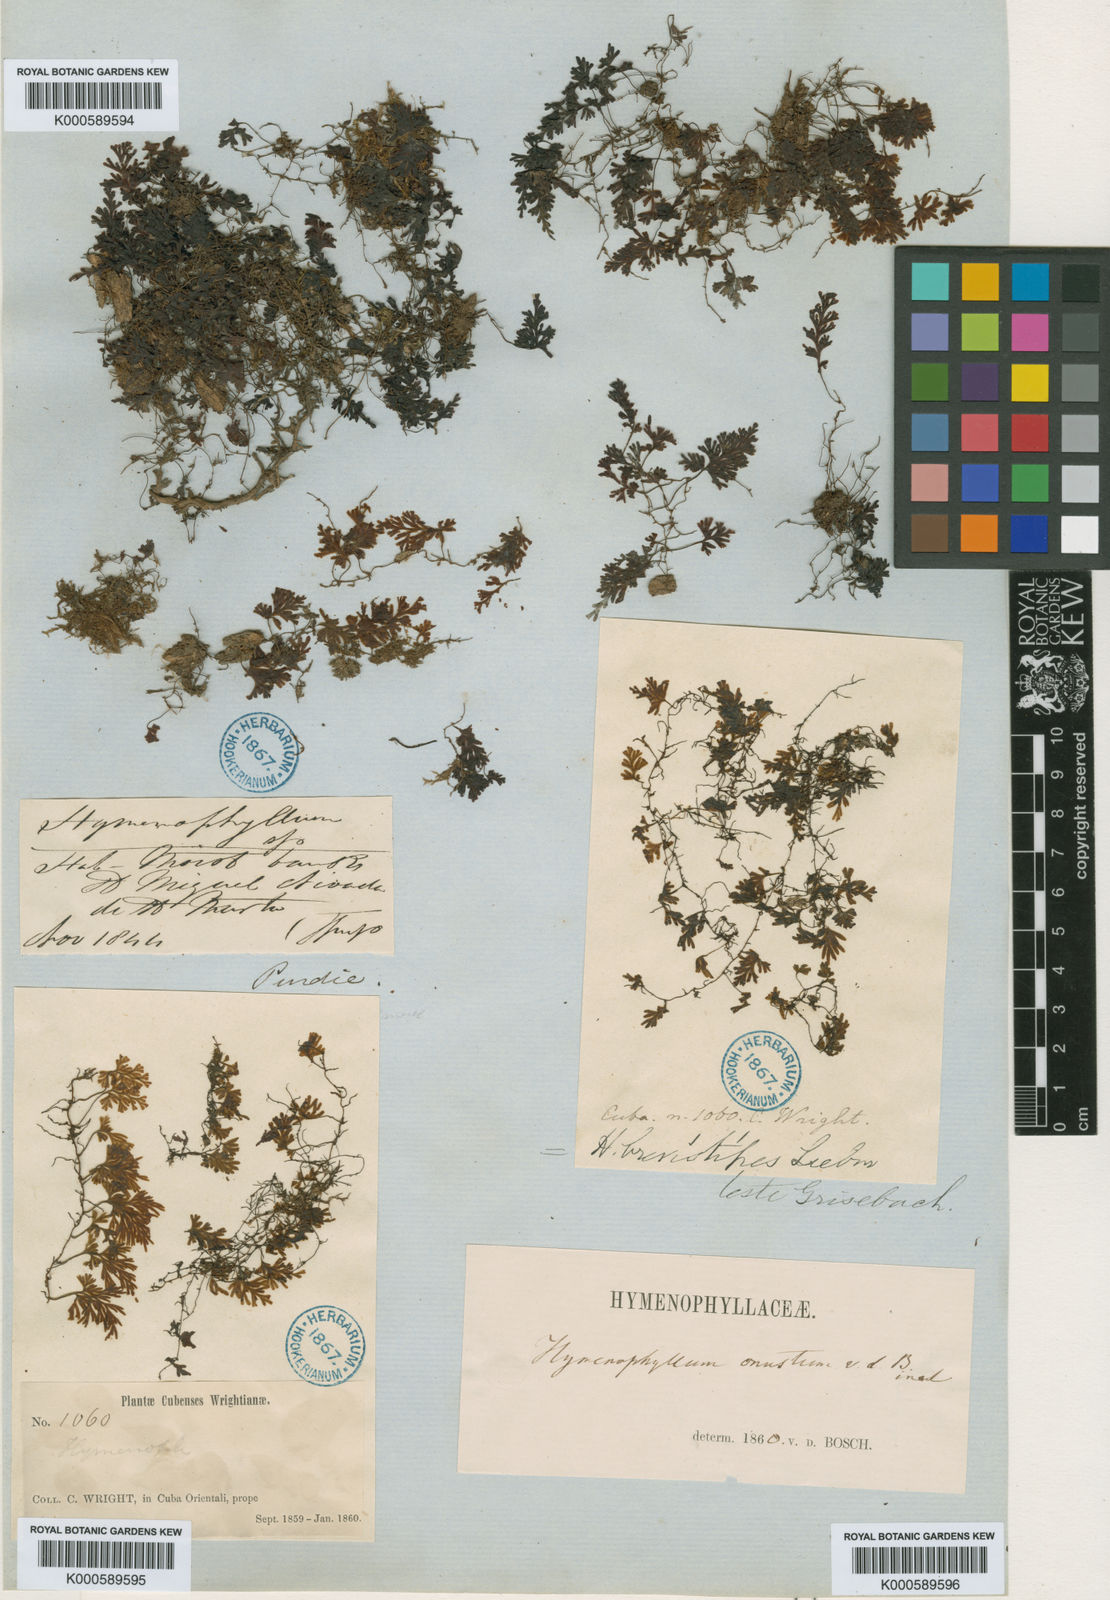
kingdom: Plantae
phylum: Tracheophyta
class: Polypodiopsida
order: Hymenophyllales
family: Hymenophyllaceae
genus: Hymenophyllum
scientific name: Hymenophyllum polyanthos
